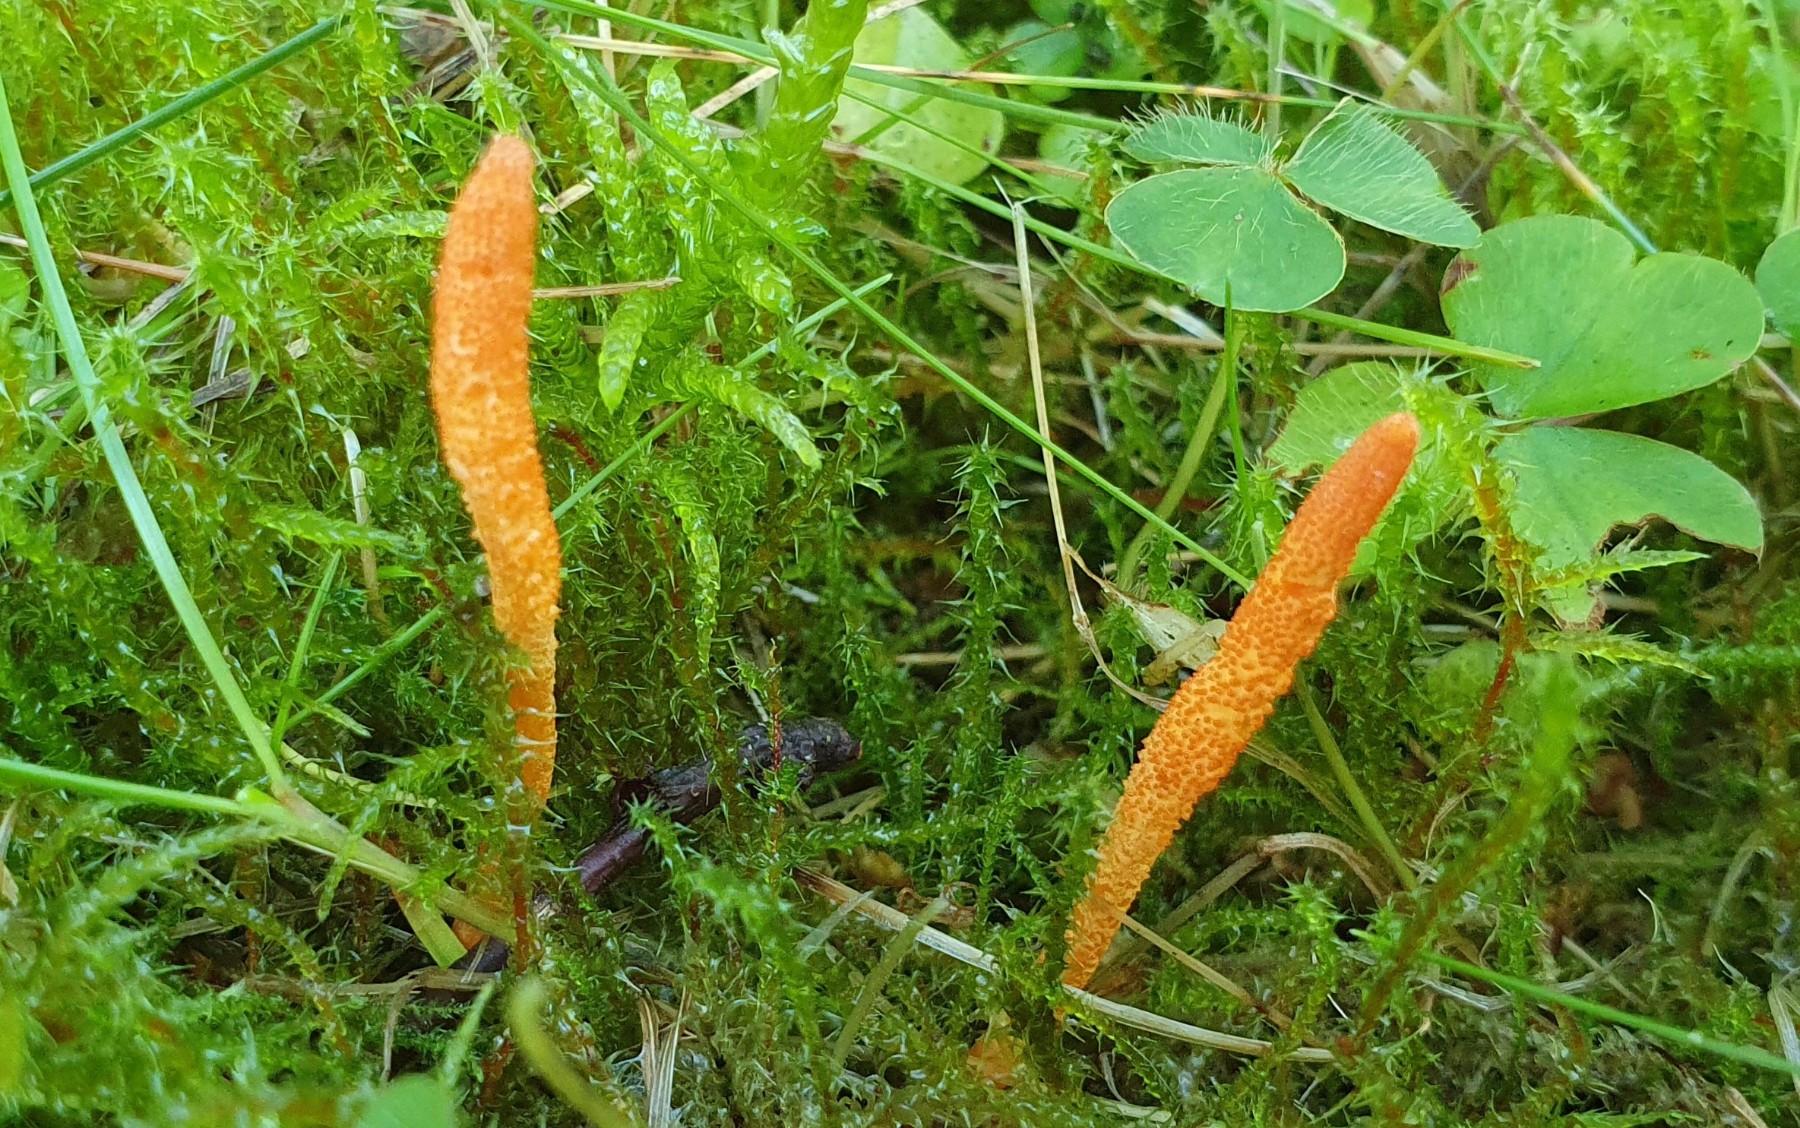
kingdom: Fungi
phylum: Ascomycota
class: Sordariomycetes
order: Hypocreales
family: Cordycipitaceae
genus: Cordyceps
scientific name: Cordyceps militaris
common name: puppe-snyltekølle
